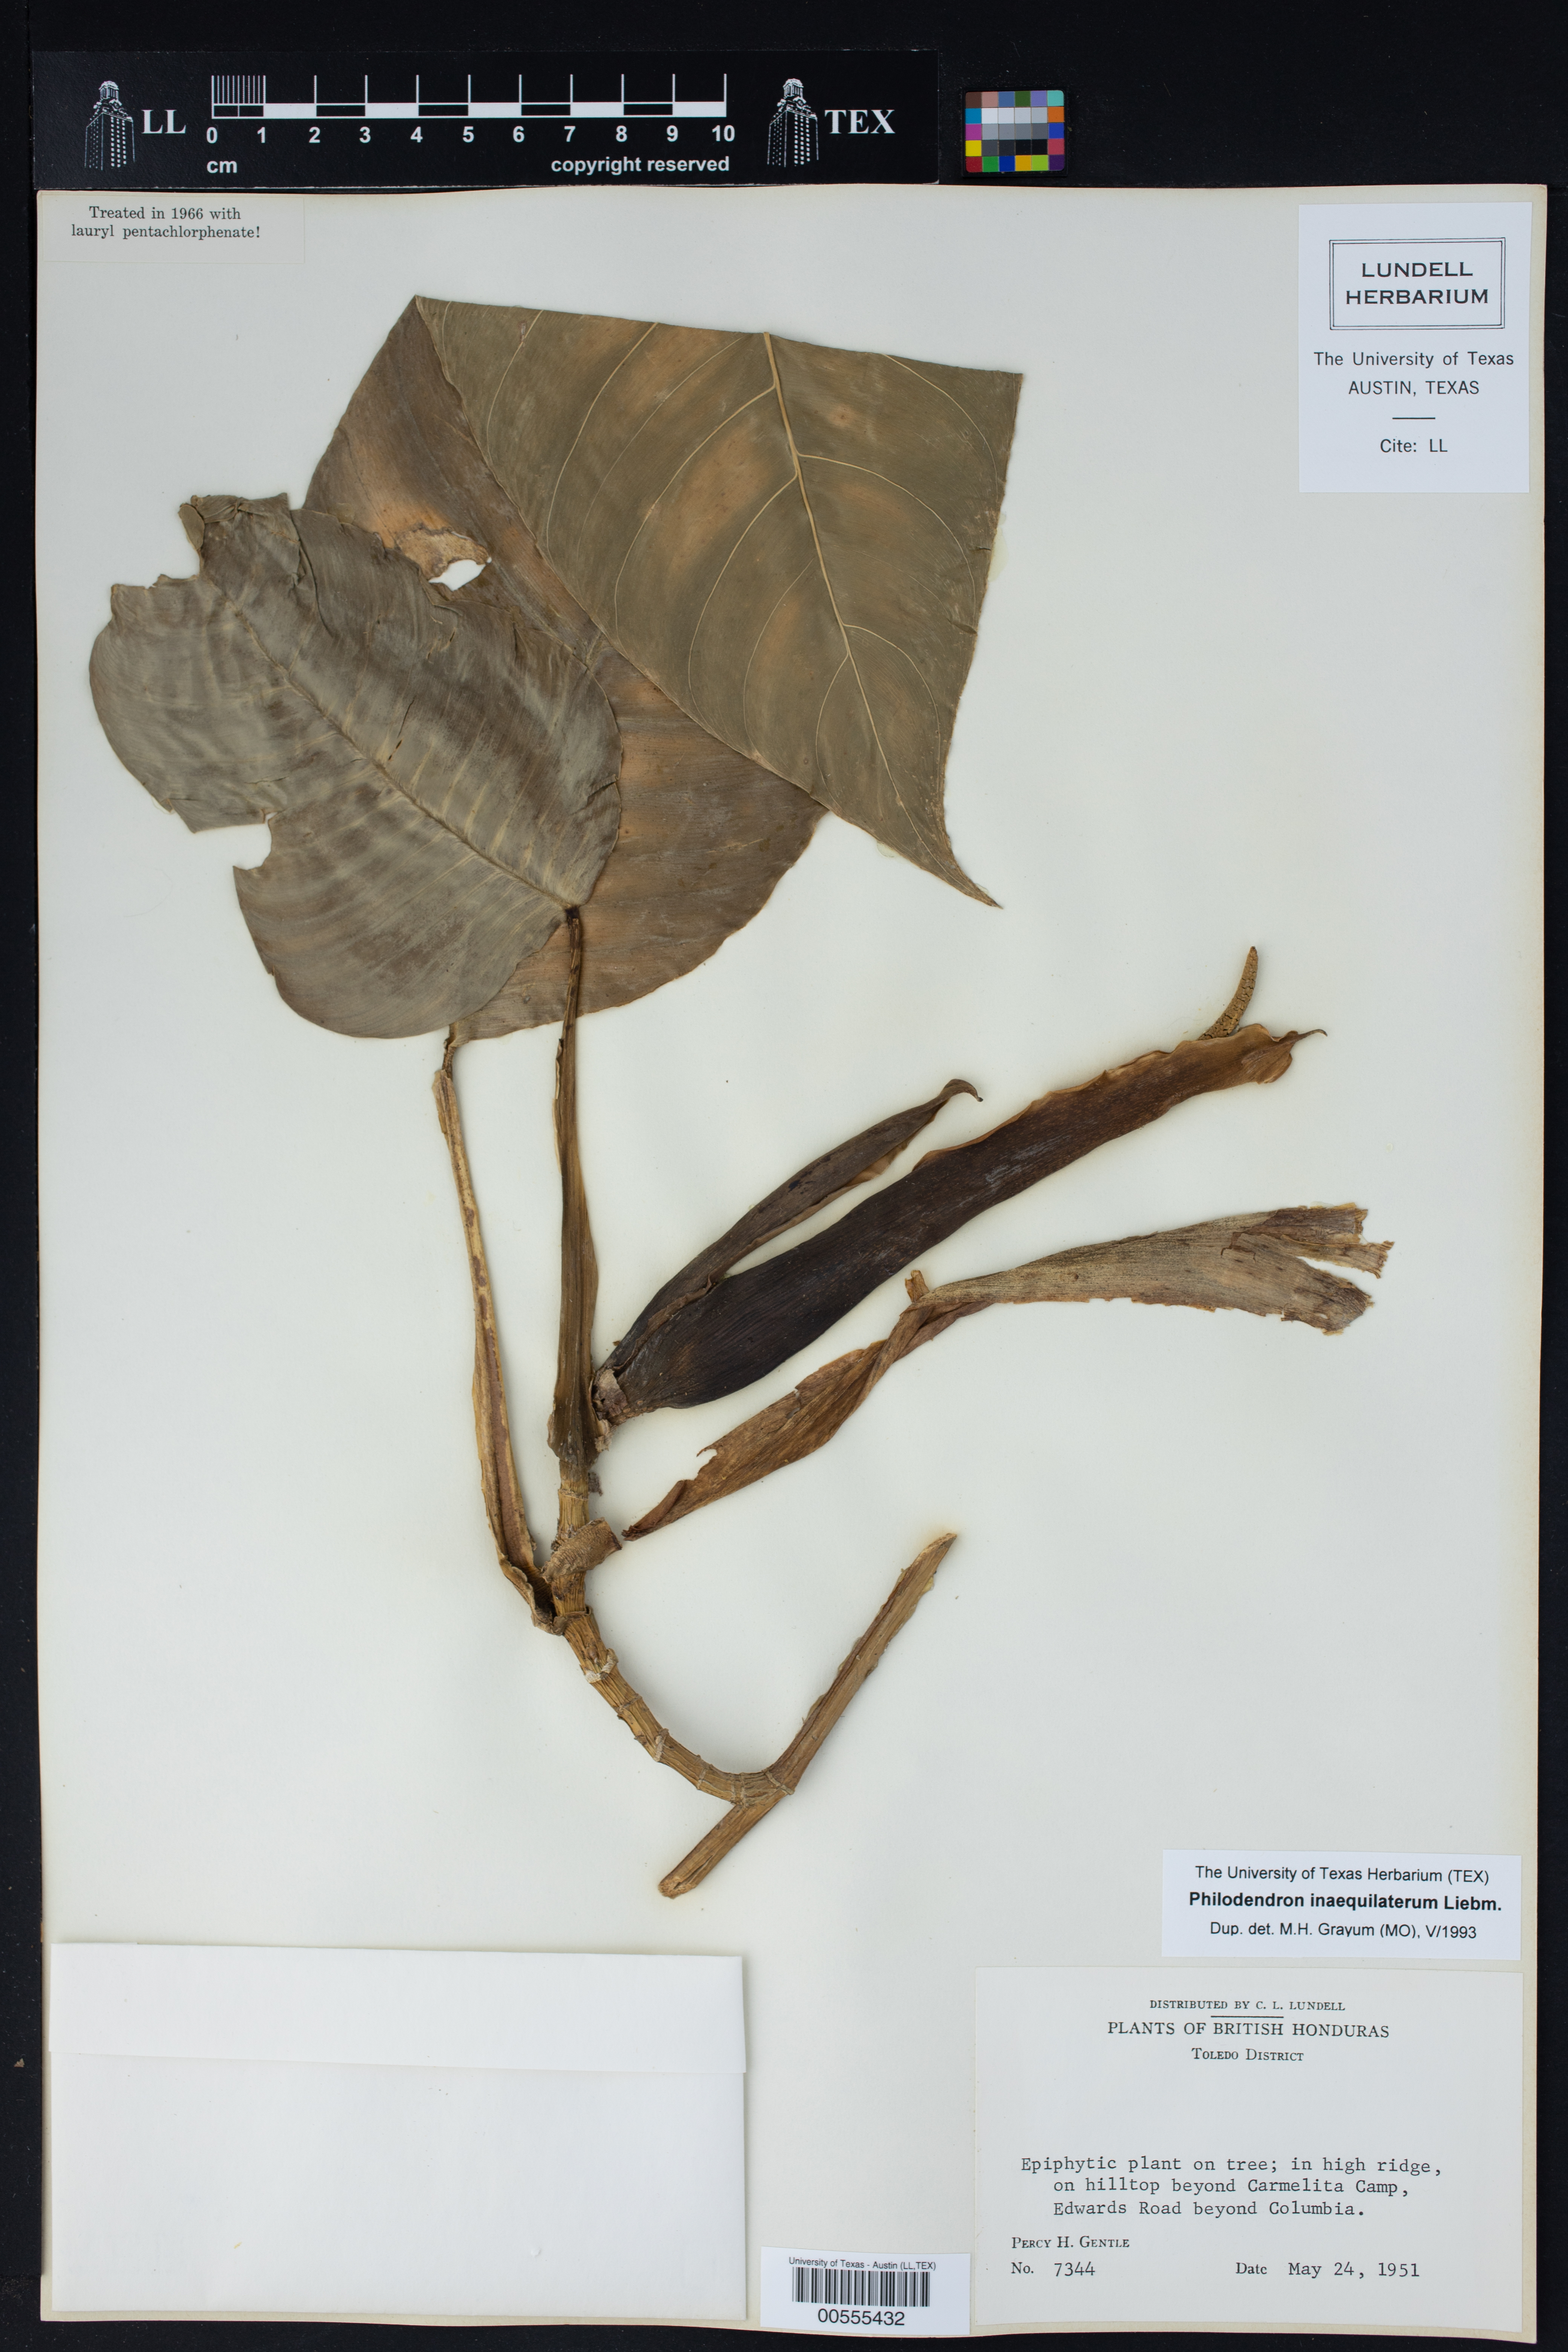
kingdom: Plantae
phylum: Tracheophyta
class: Liliopsida
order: Alismatales
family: Araceae
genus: Philodendron
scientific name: Philodendron inaequilaterum
